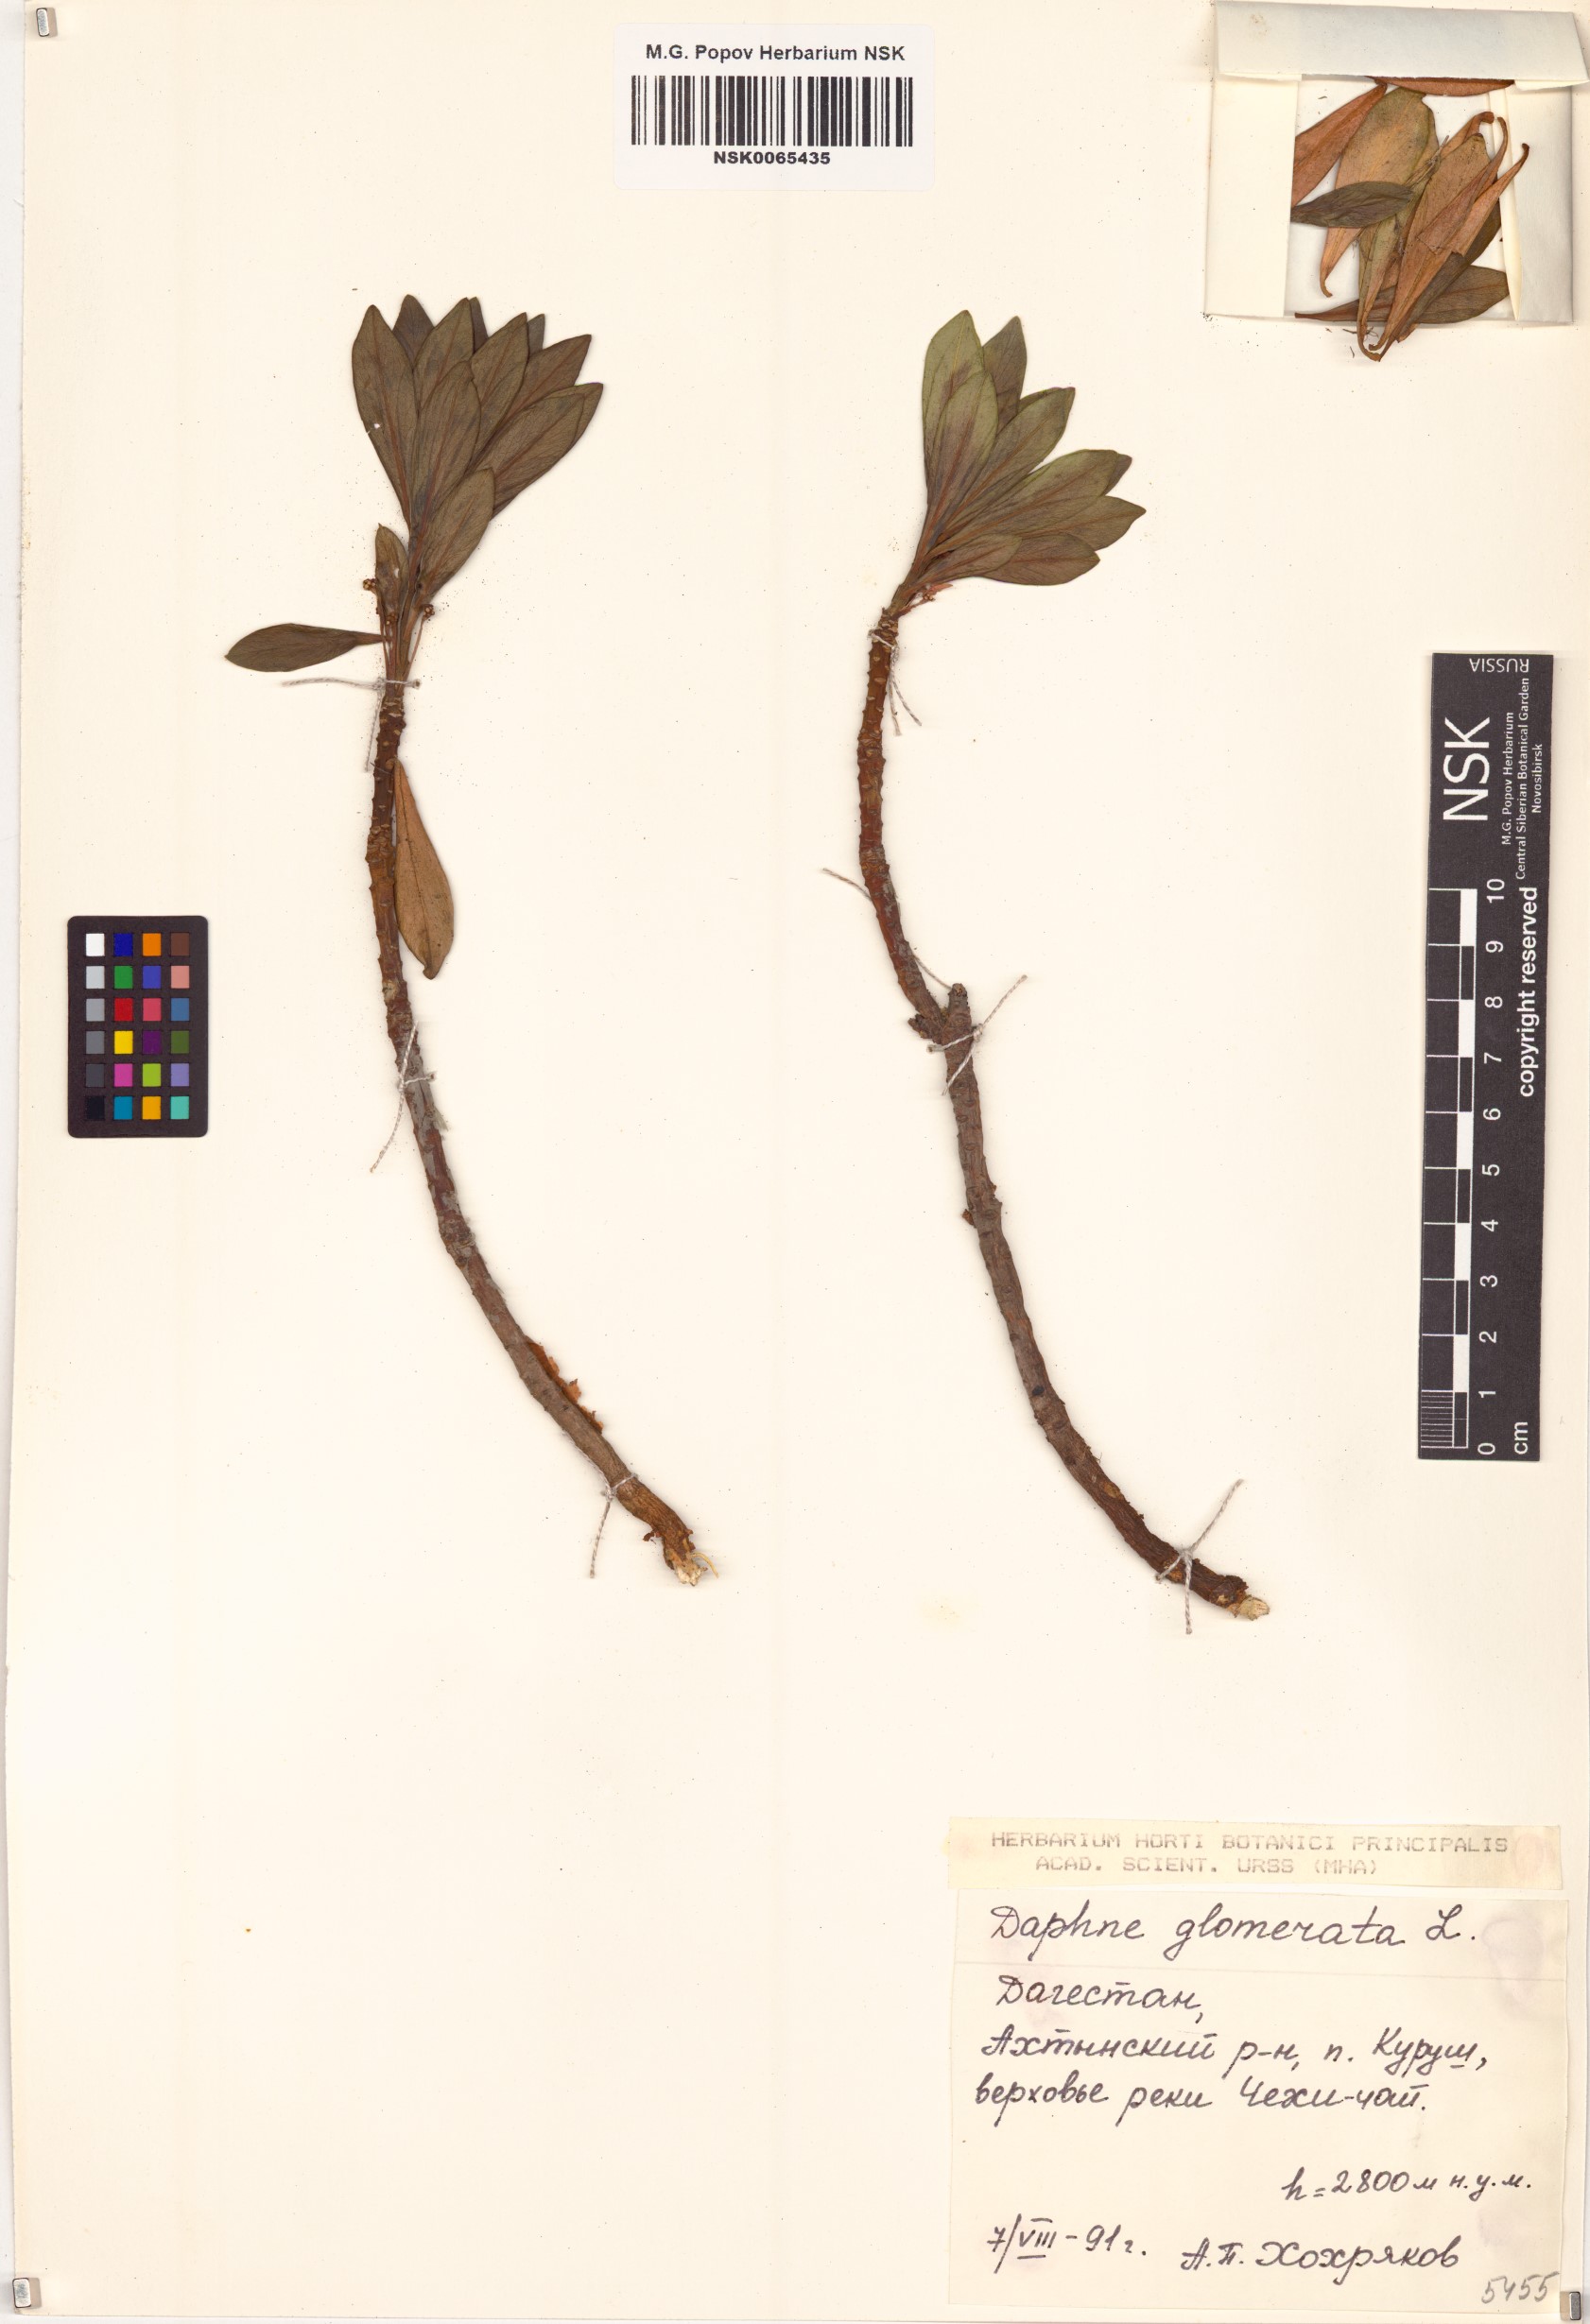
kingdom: Plantae
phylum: Tracheophyta
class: Magnoliopsida
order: Malvales
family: Thymelaeaceae
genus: Daphne
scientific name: Daphne glomerata
